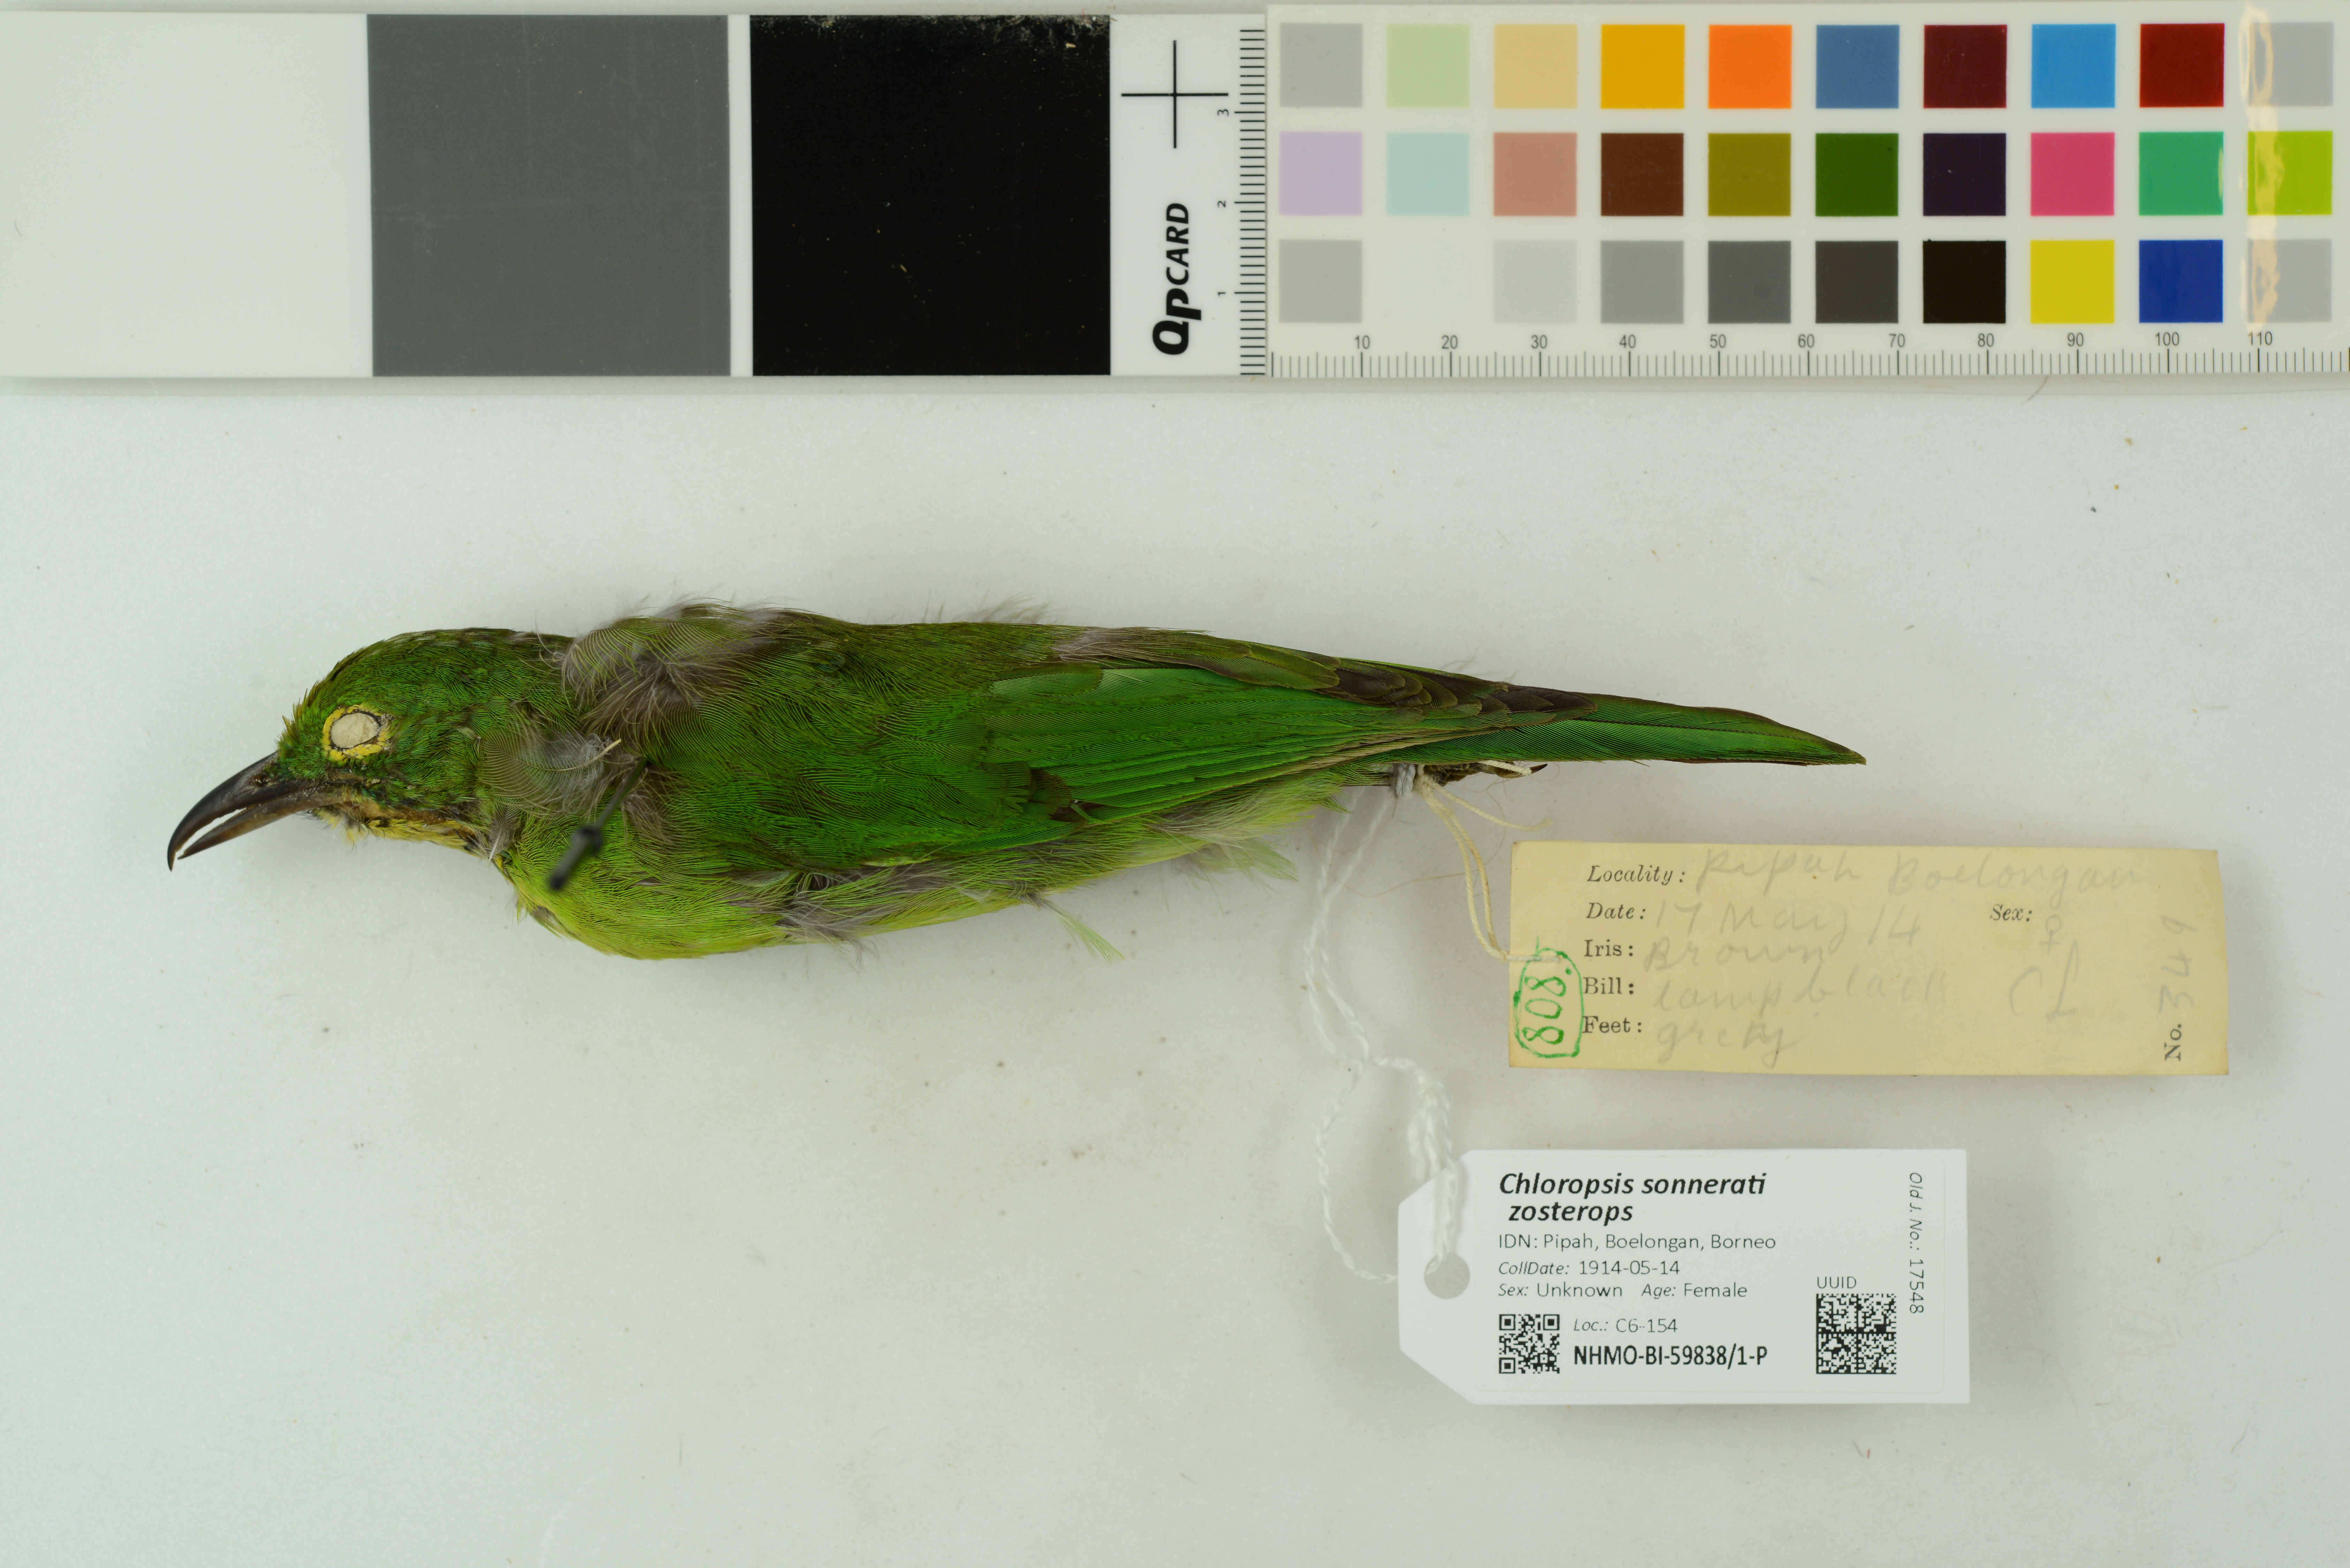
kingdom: Animalia
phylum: Chordata
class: Aves
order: Passeriformes
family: Chloropseidae
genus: Chloropsis
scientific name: Chloropsis sonnerati
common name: Greater green leafbird
